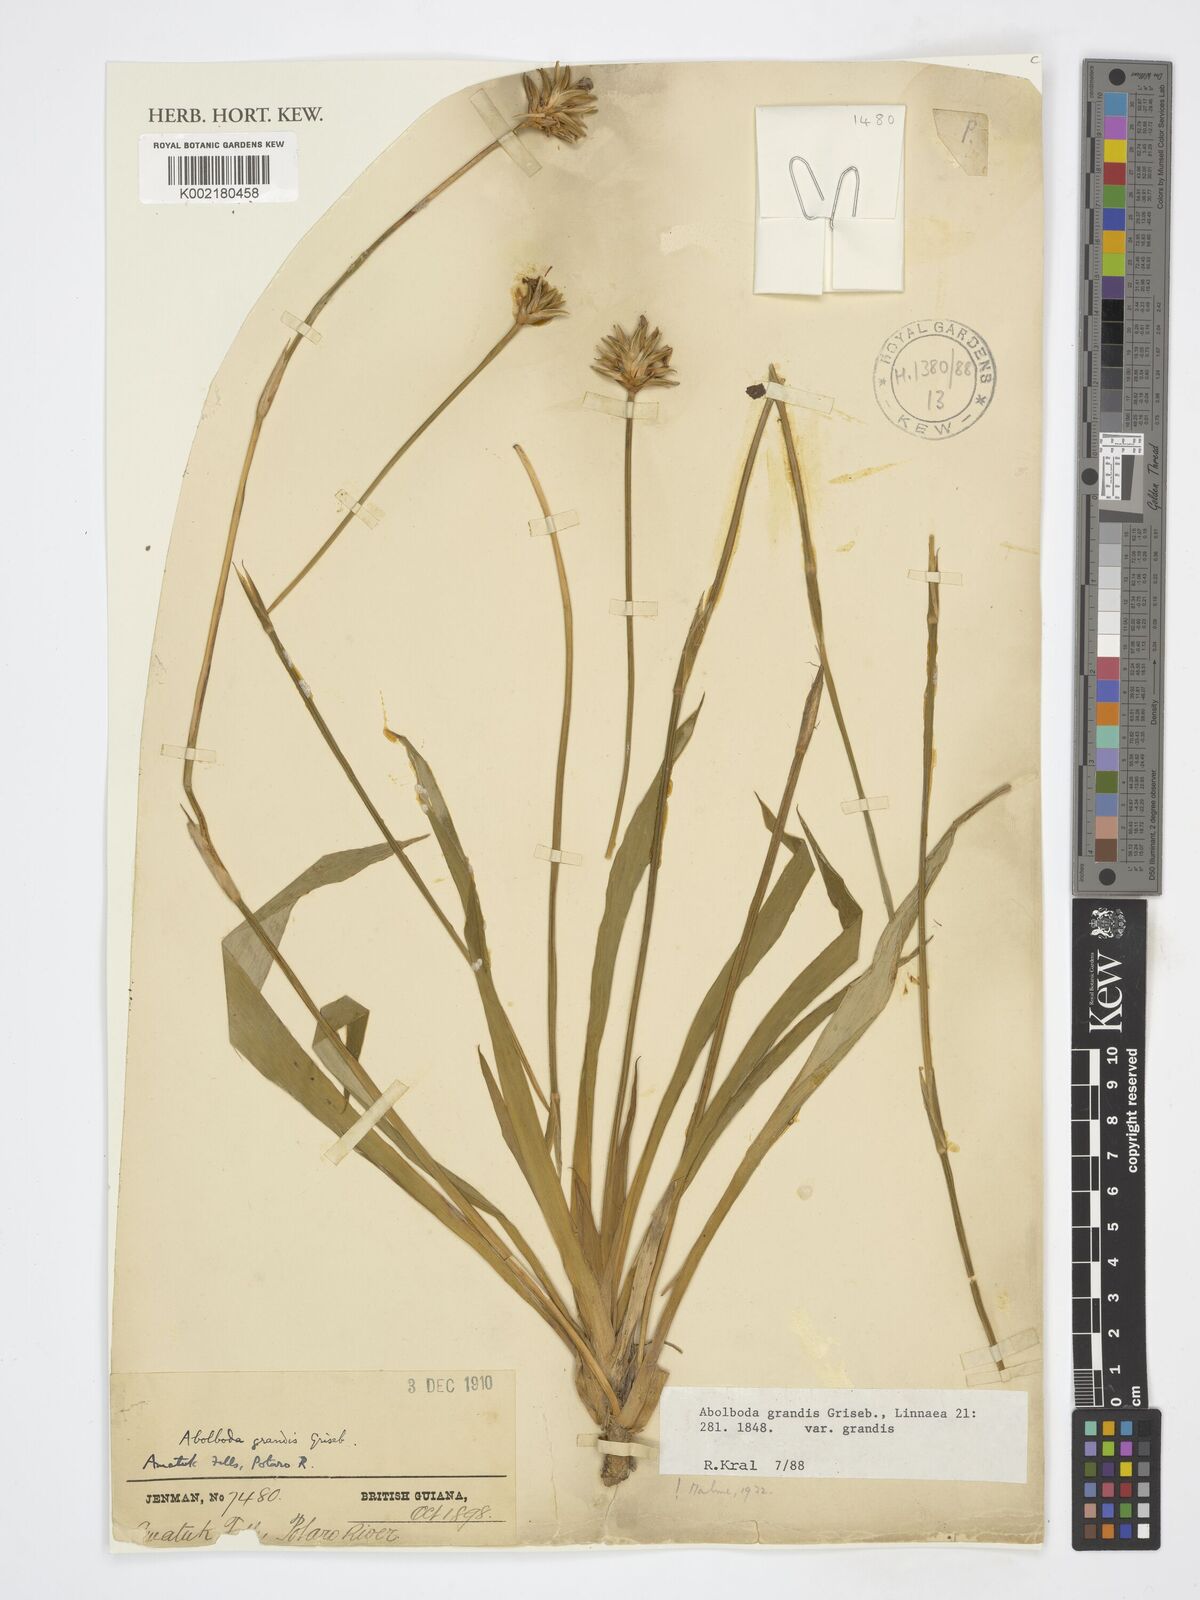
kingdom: Plantae
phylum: Tracheophyta
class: Liliopsida
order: Poales
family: Xyridaceae
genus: Abolboda
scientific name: Abolboda grandis
